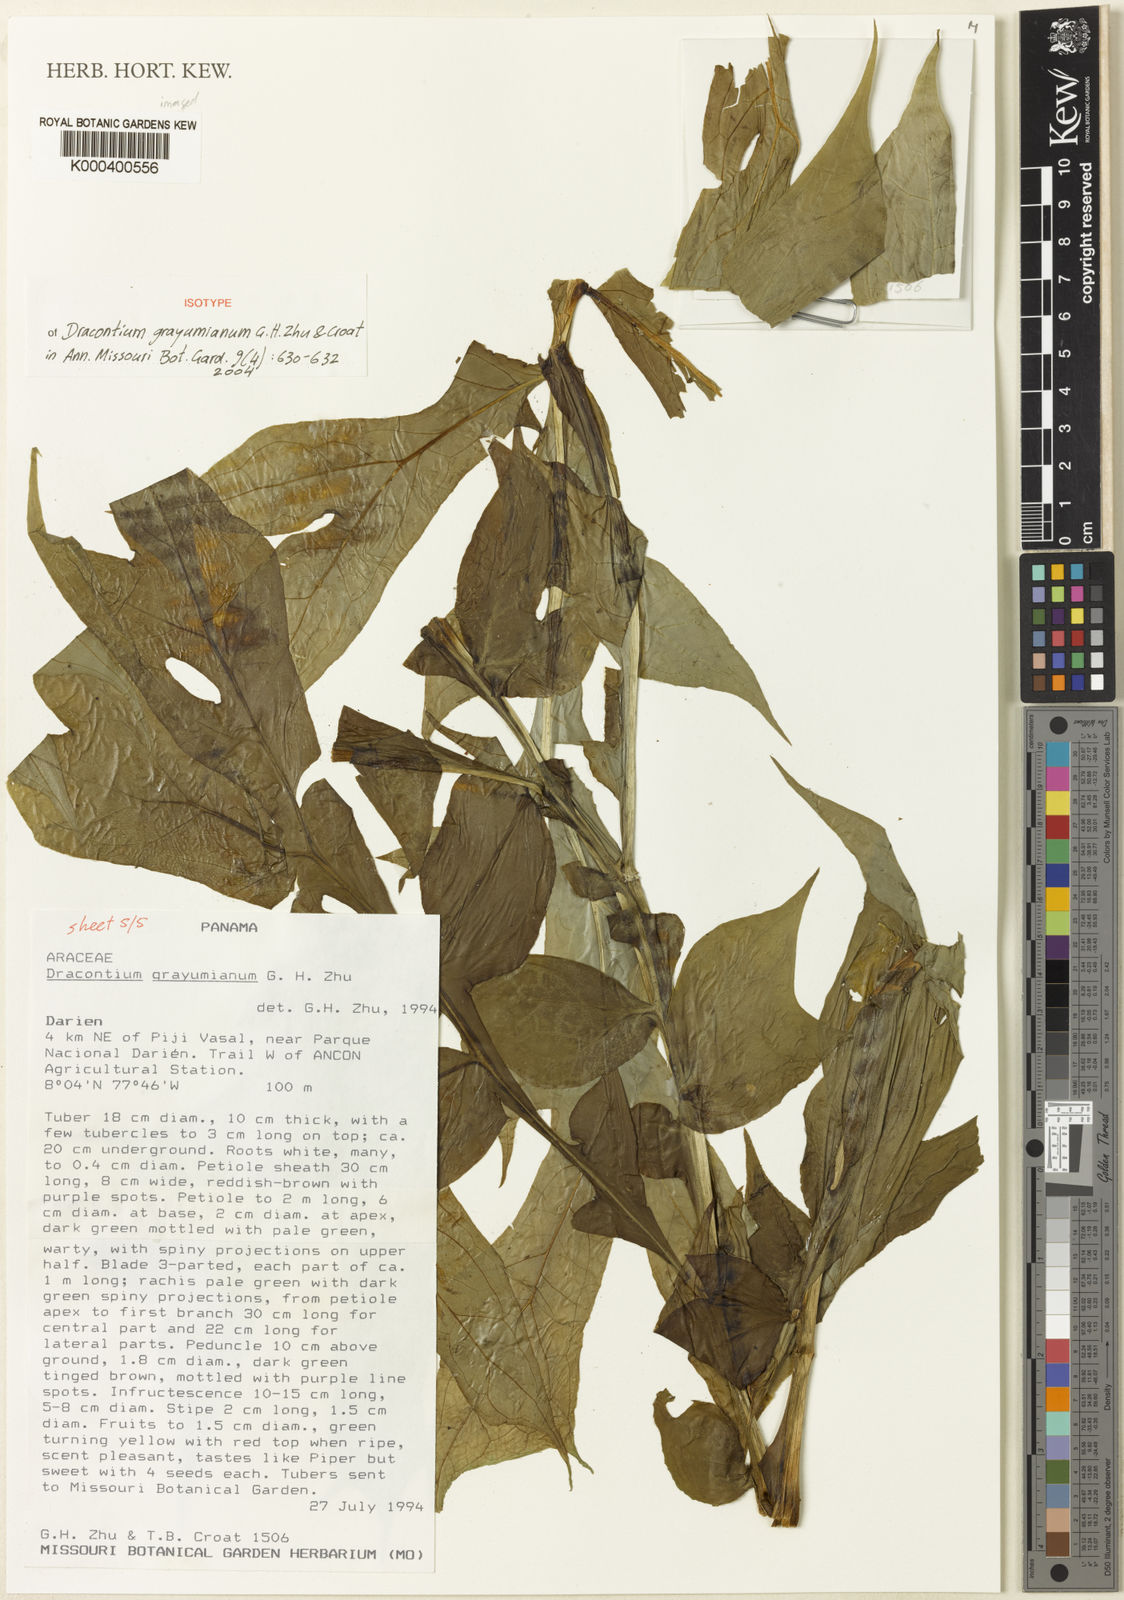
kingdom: Plantae
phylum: Tracheophyta
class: Liliopsida
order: Alismatales
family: Araceae
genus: Dracontium
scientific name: Dracontium grayumianum
